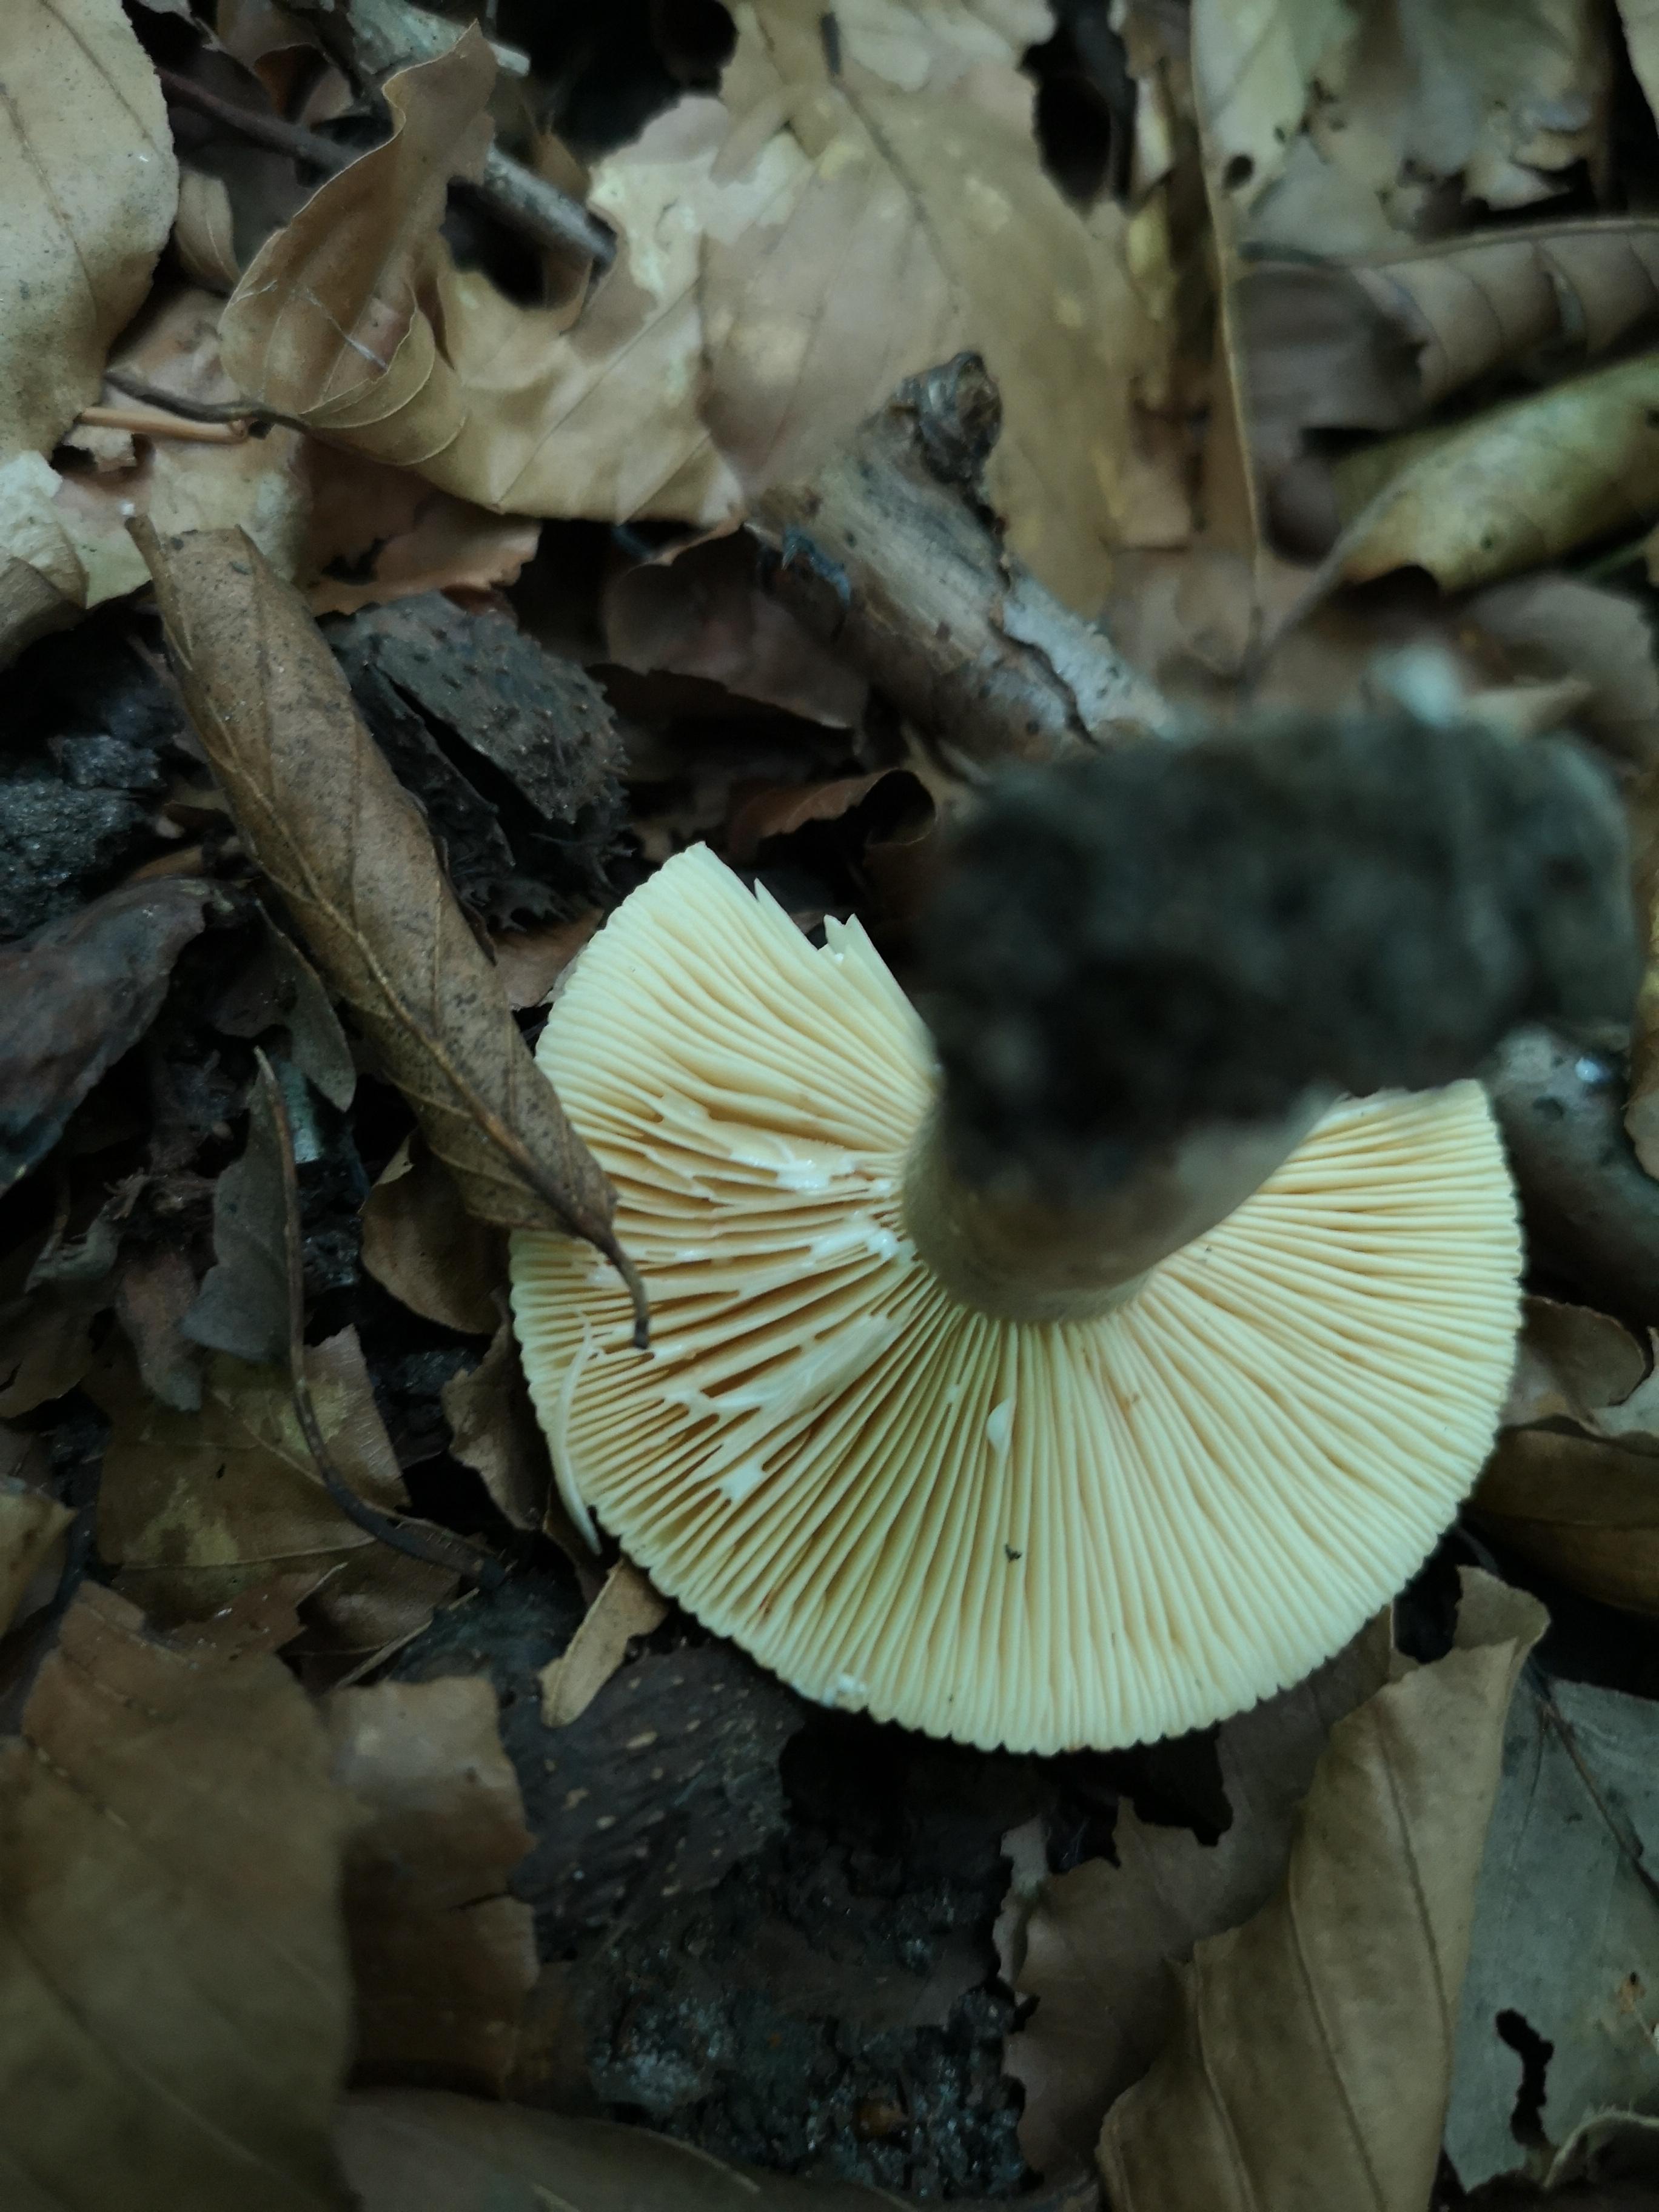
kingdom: Fungi
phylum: Basidiomycota
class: Agaricomycetes
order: Russulales
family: Russulaceae
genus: Lactarius
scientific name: Lactarius
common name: mælkehat
